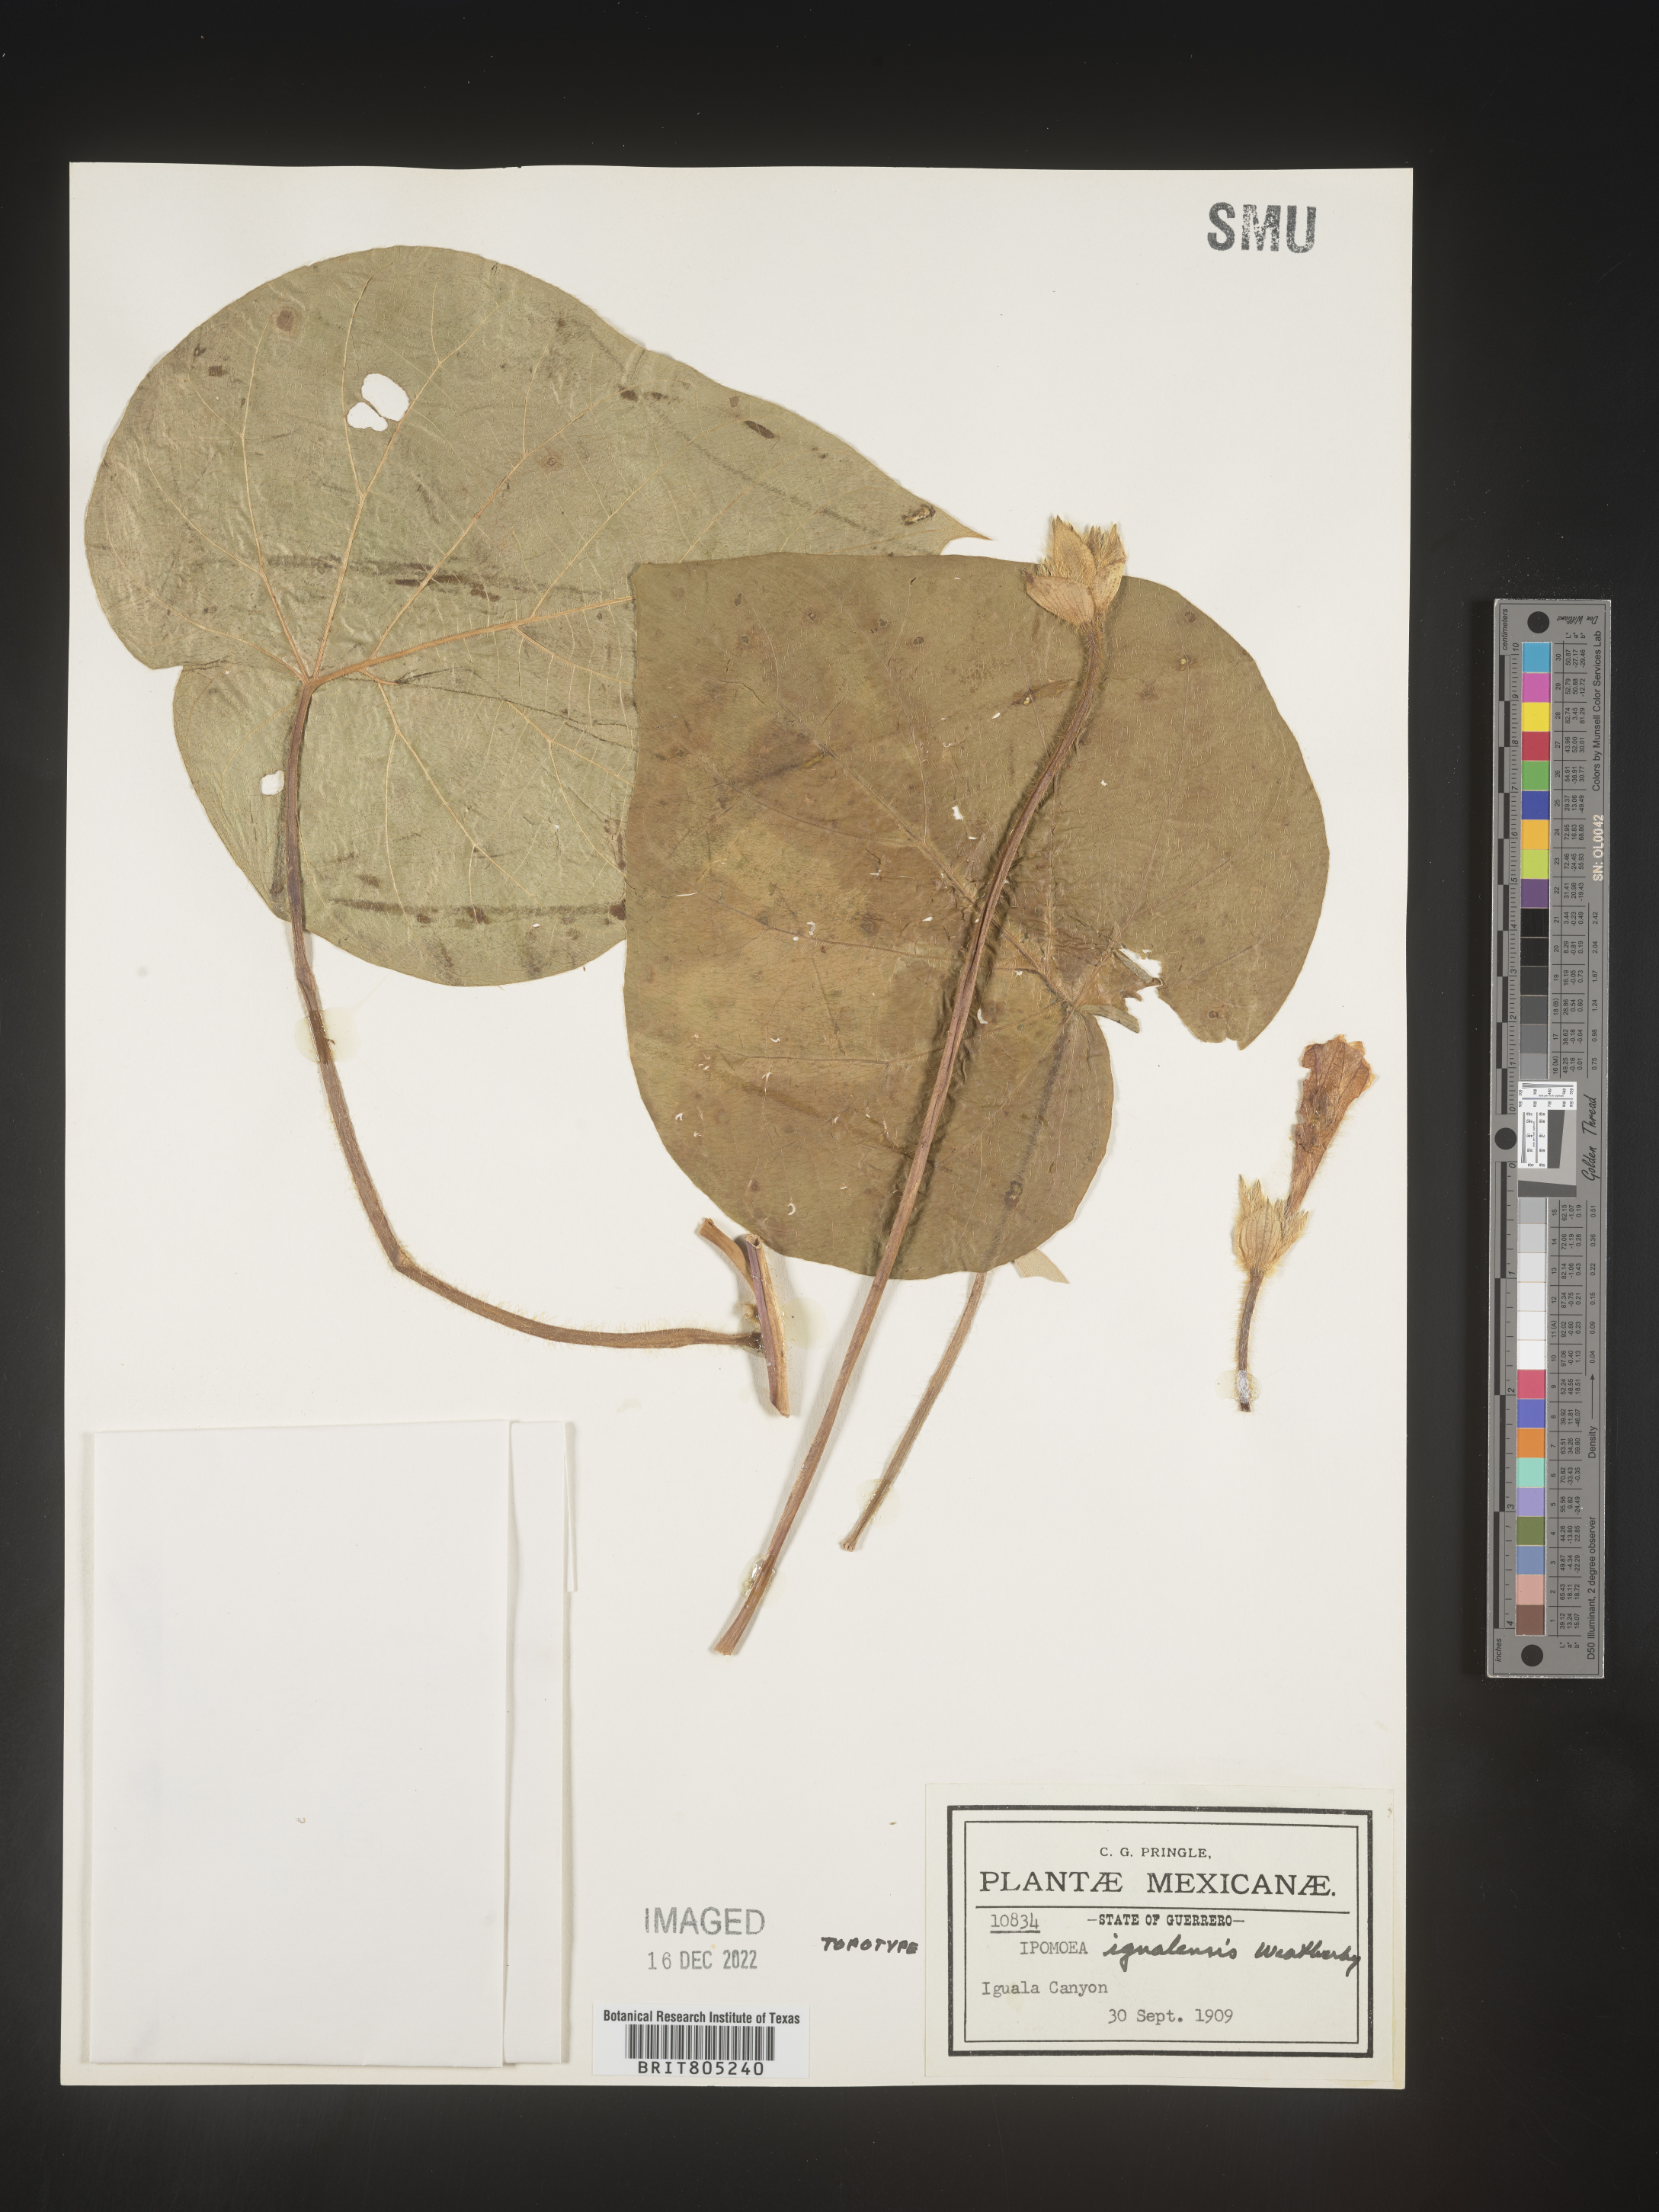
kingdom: Plantae
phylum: Tracheophyta
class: Magnoliopsida
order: Solanales
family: Convolvulaceae
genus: Ipomoea
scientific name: Ipomoea
